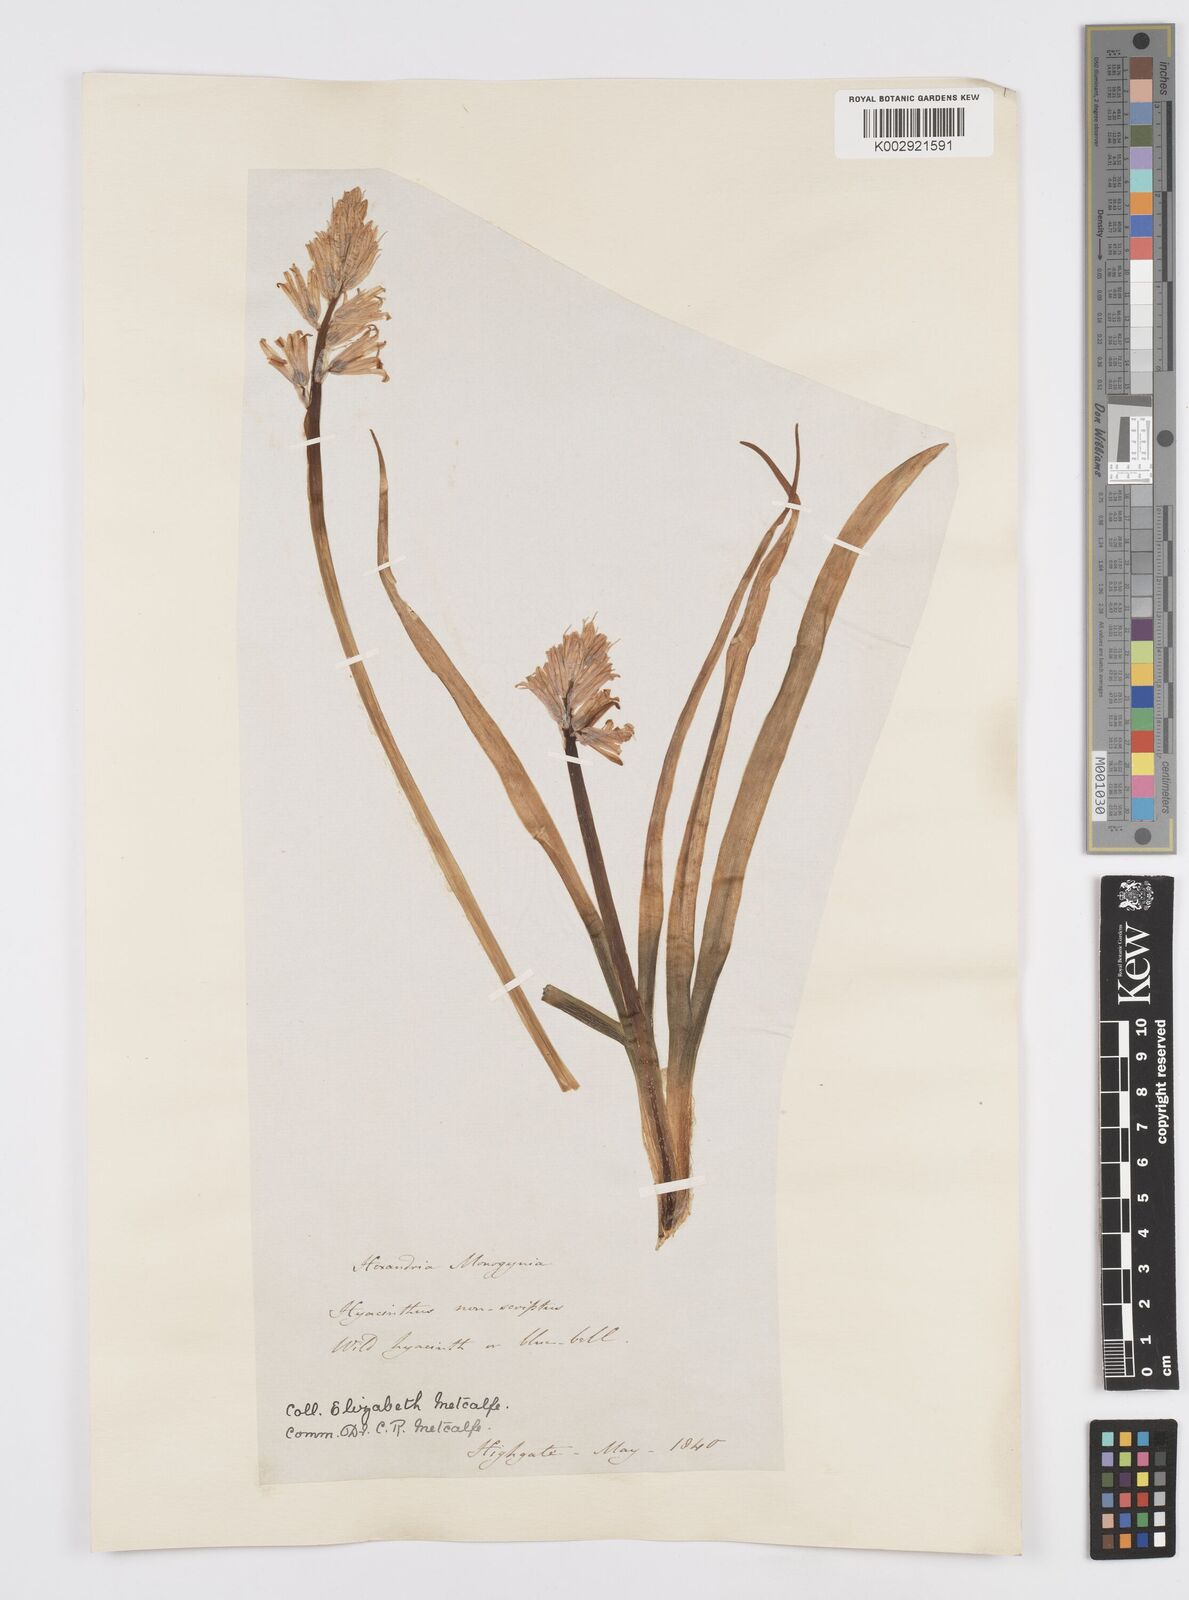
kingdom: Plantae
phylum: Tracheophyta
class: Liliopsida
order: Asparagales
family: Asparagaceae
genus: Hyacinthoides
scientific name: Hyacinthoides non-scripta
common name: Bluebell
